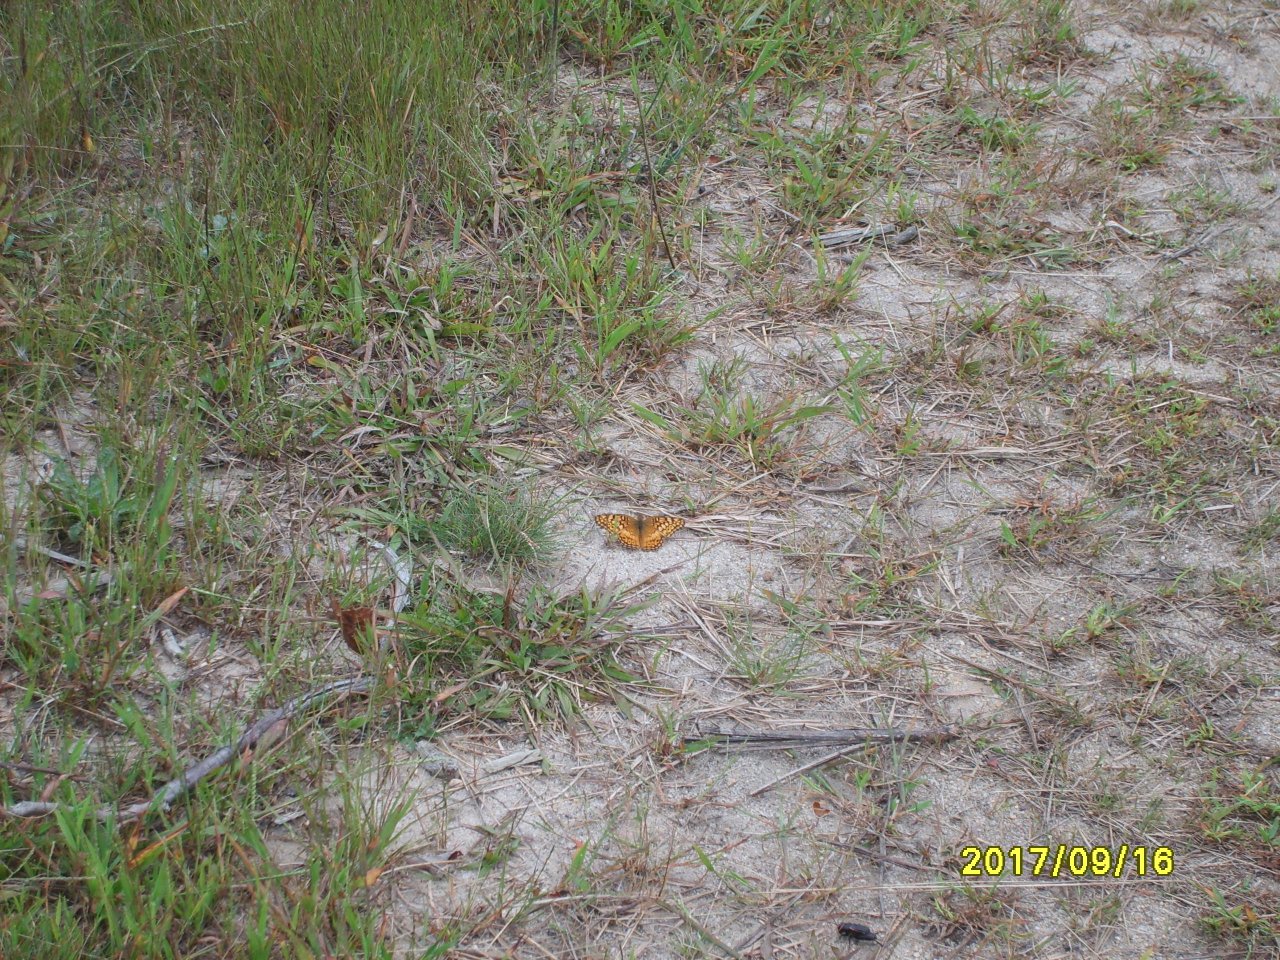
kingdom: Animalia
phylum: Arthropoda
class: Insecta
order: Lepidoptera
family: Nymphalidae
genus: Euptoieta
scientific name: Euptoieta claudia
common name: Variegated Fritillary
